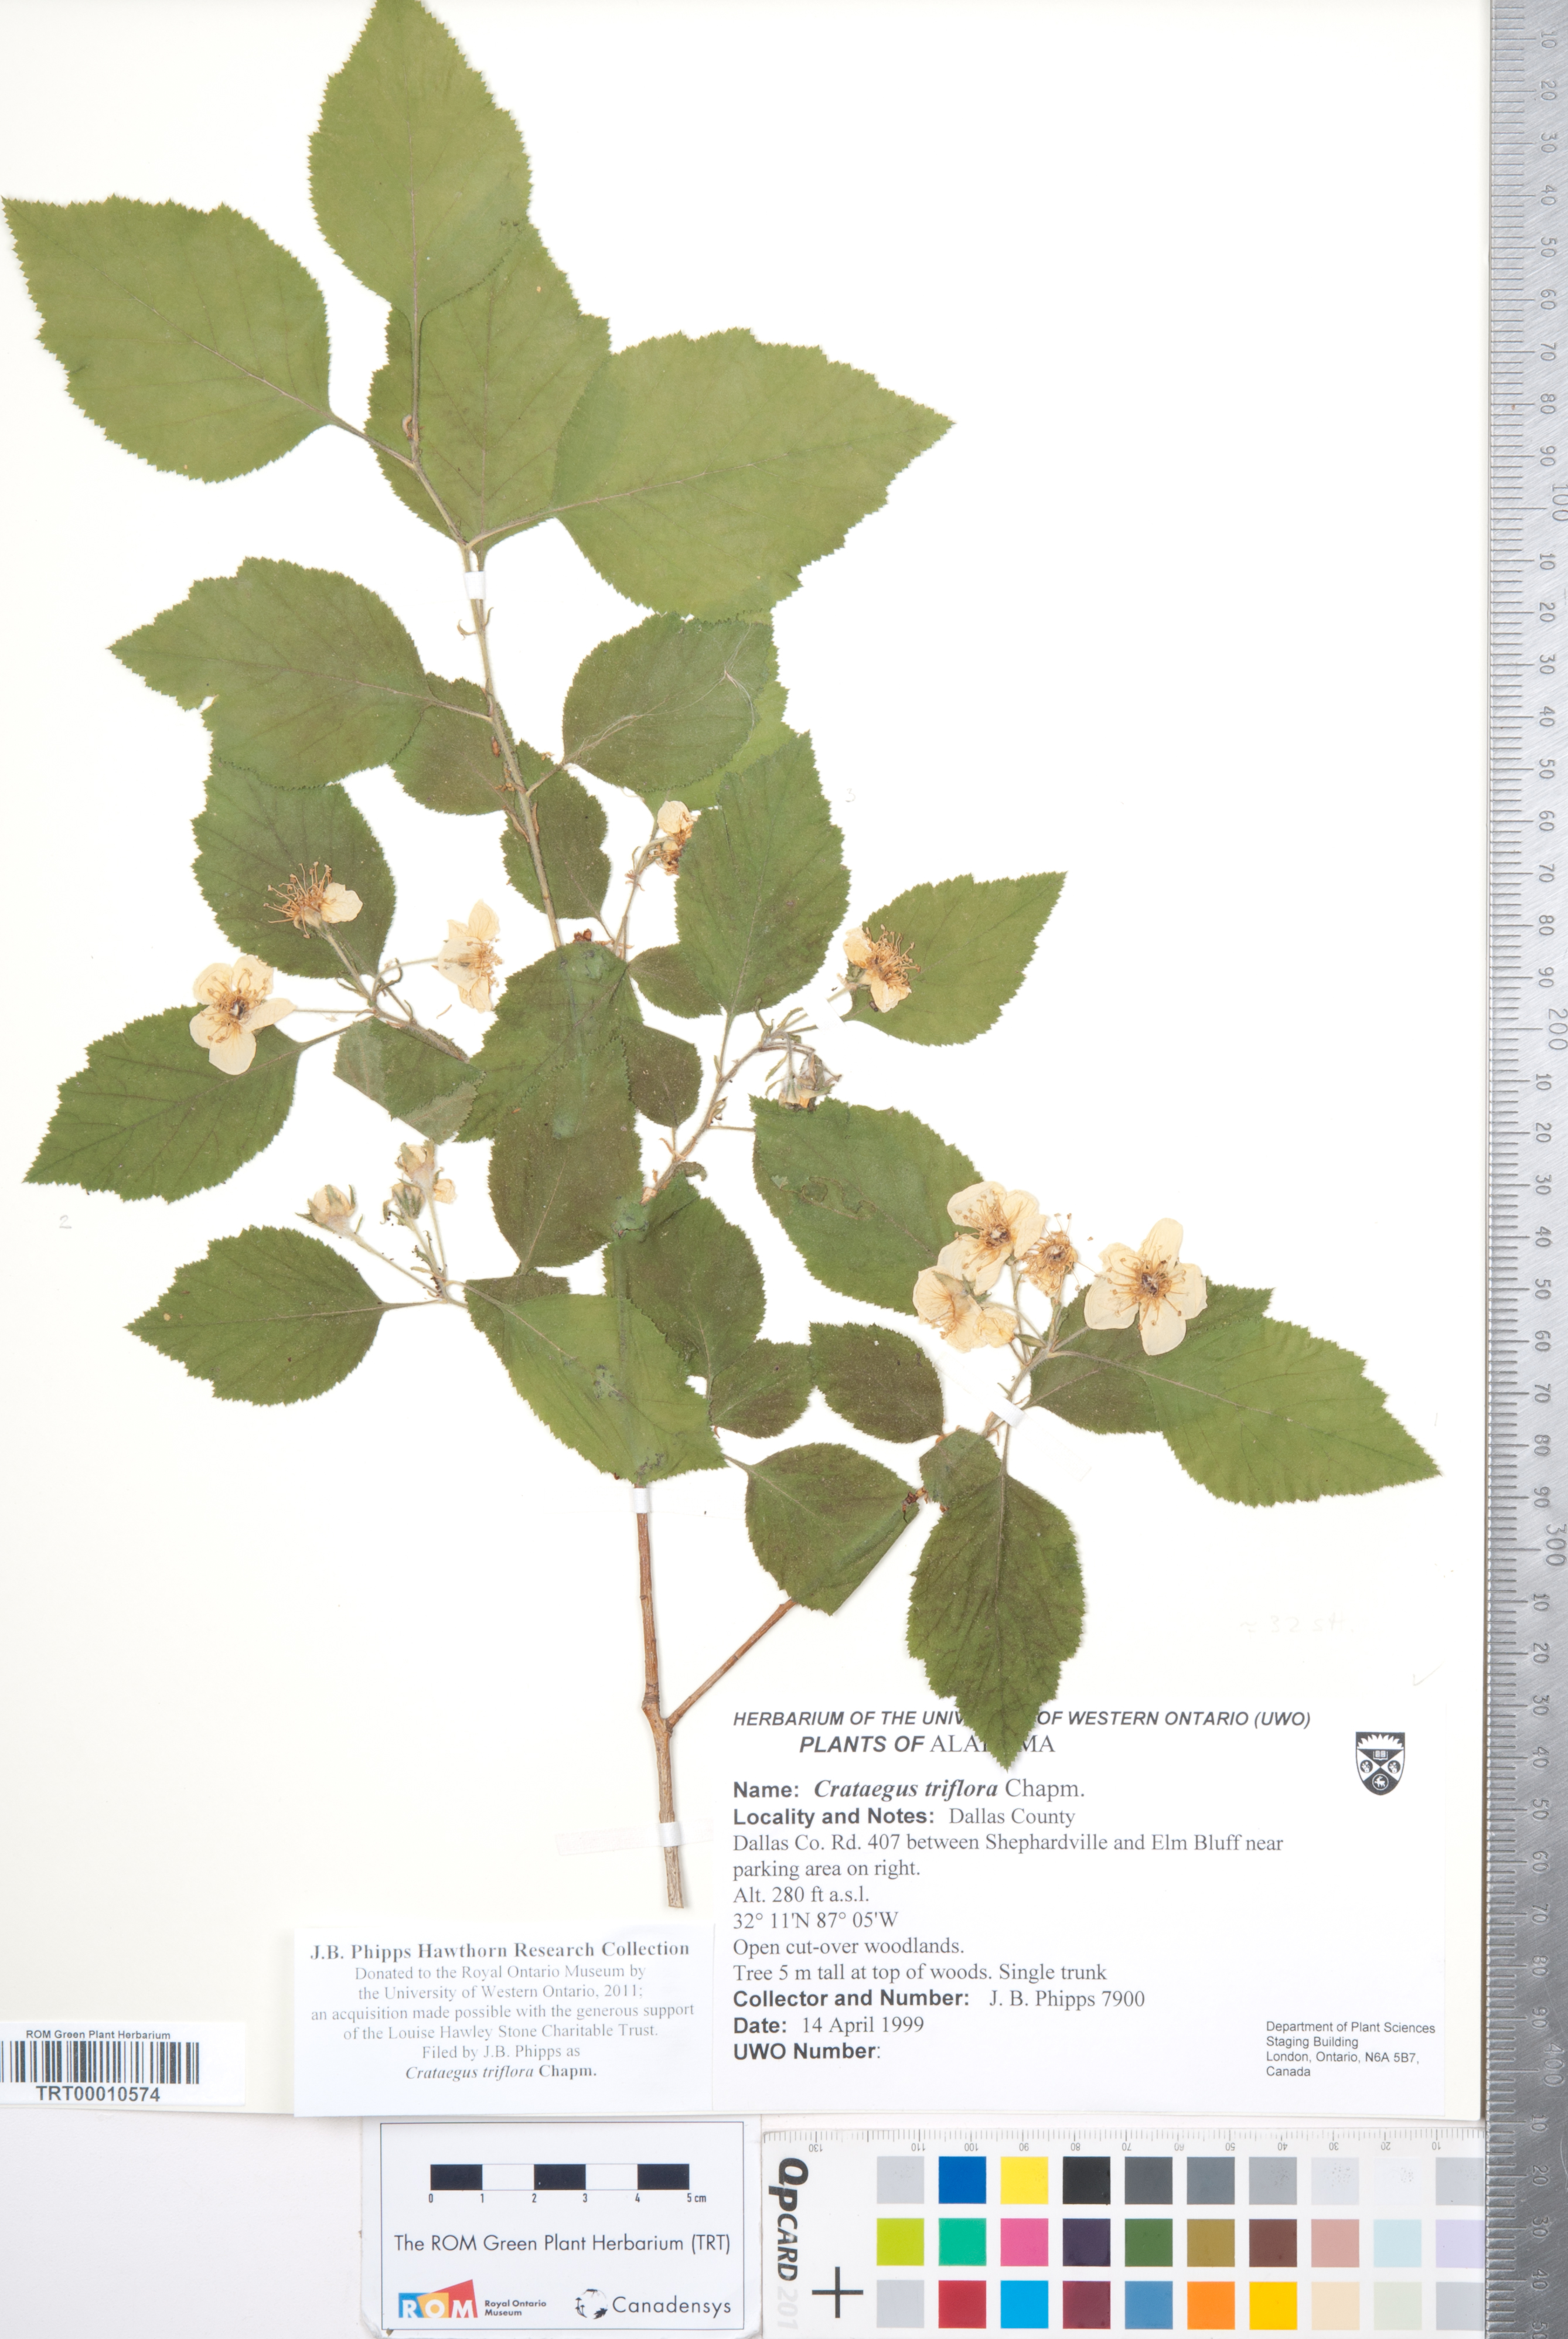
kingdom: Plantae
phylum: Tracheophyta
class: Magnoliopsida
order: Rosales
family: Rosaceae
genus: Crataegus
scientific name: Crataegus triflora
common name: Three-flower hawthorn
